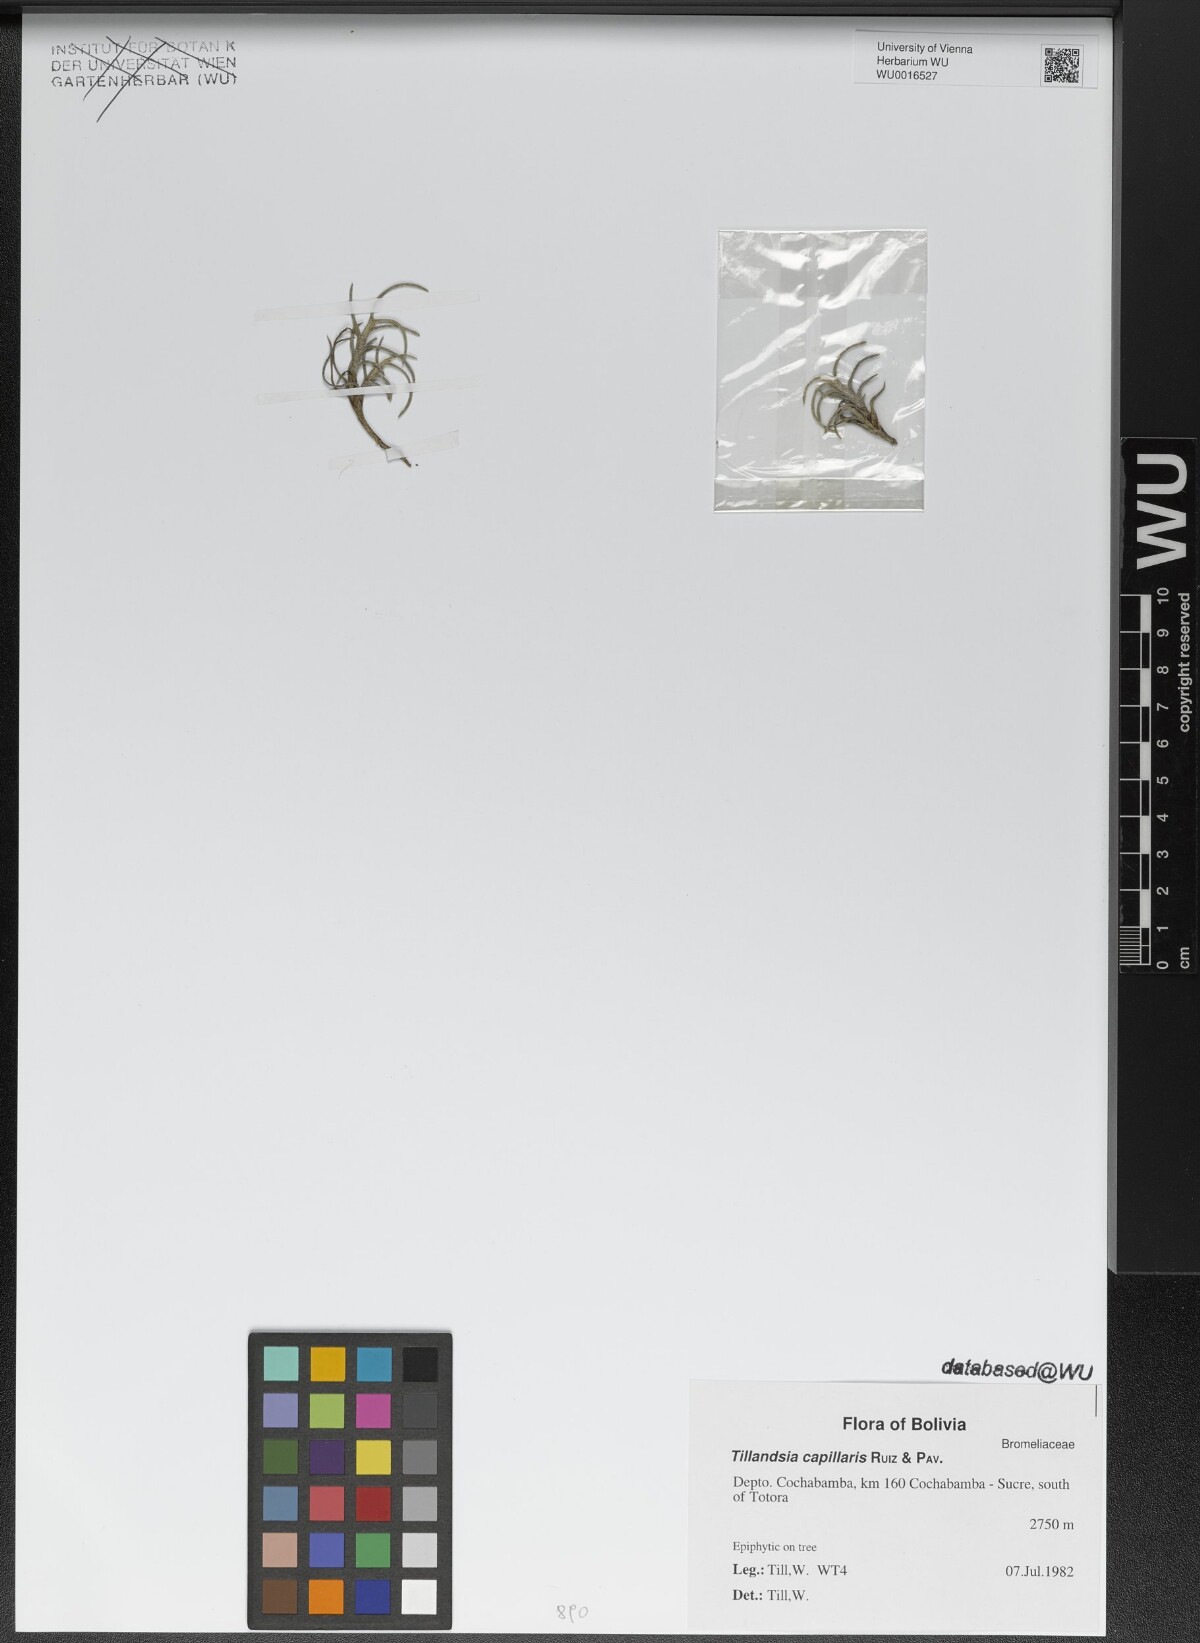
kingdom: Plantae
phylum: Tracheophyta
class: Liliopsida
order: Poales
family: Bromeliaceae
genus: Tillandsia
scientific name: Tillandsia capillaris
